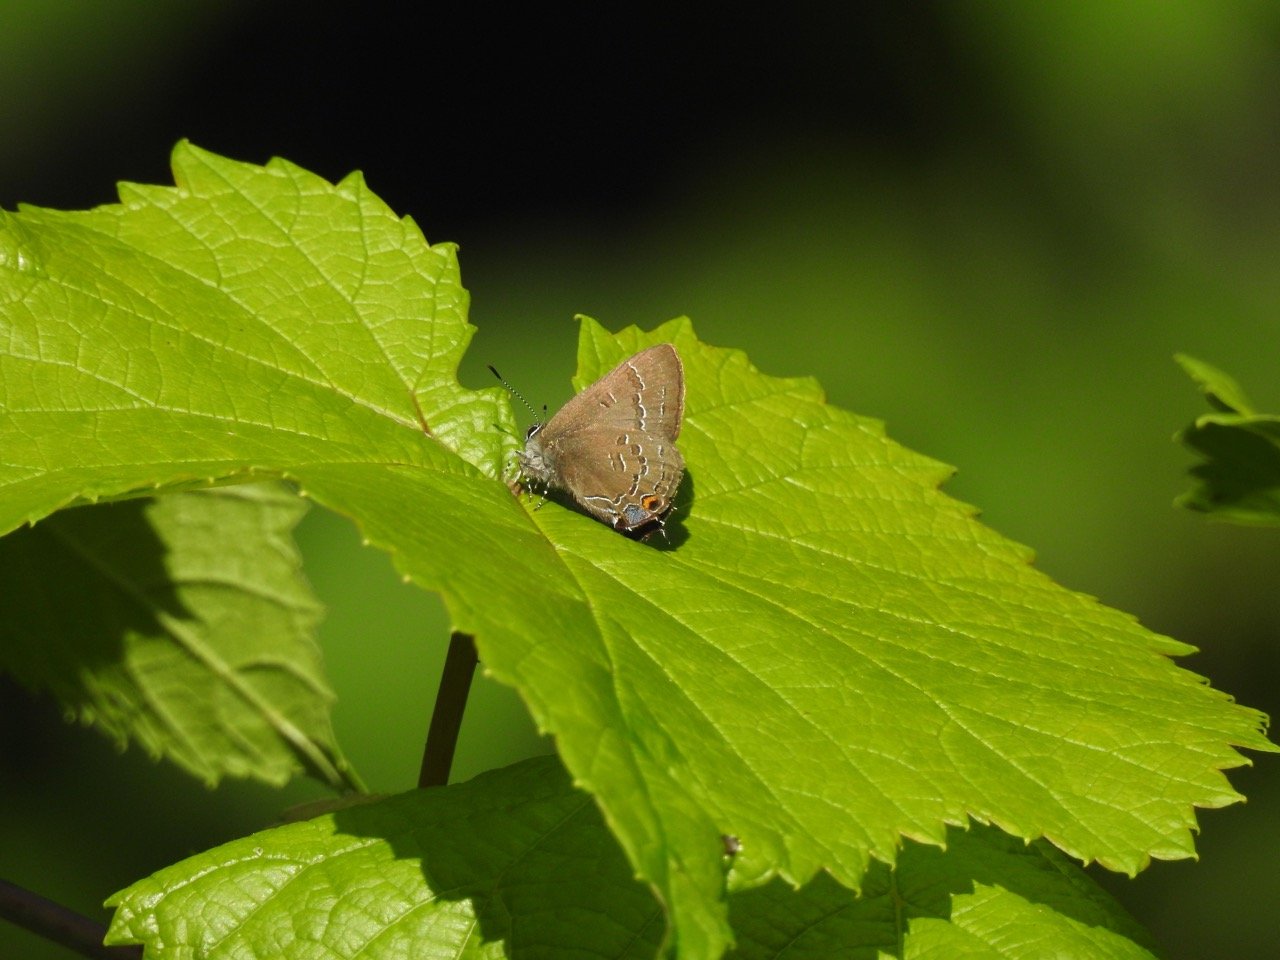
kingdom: Animalia
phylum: Arthropoda
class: Insecta
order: Lepidoptera
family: Lycaenidae
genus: Satyrium
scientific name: Satyrium calanus
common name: Banded Hairstreak
